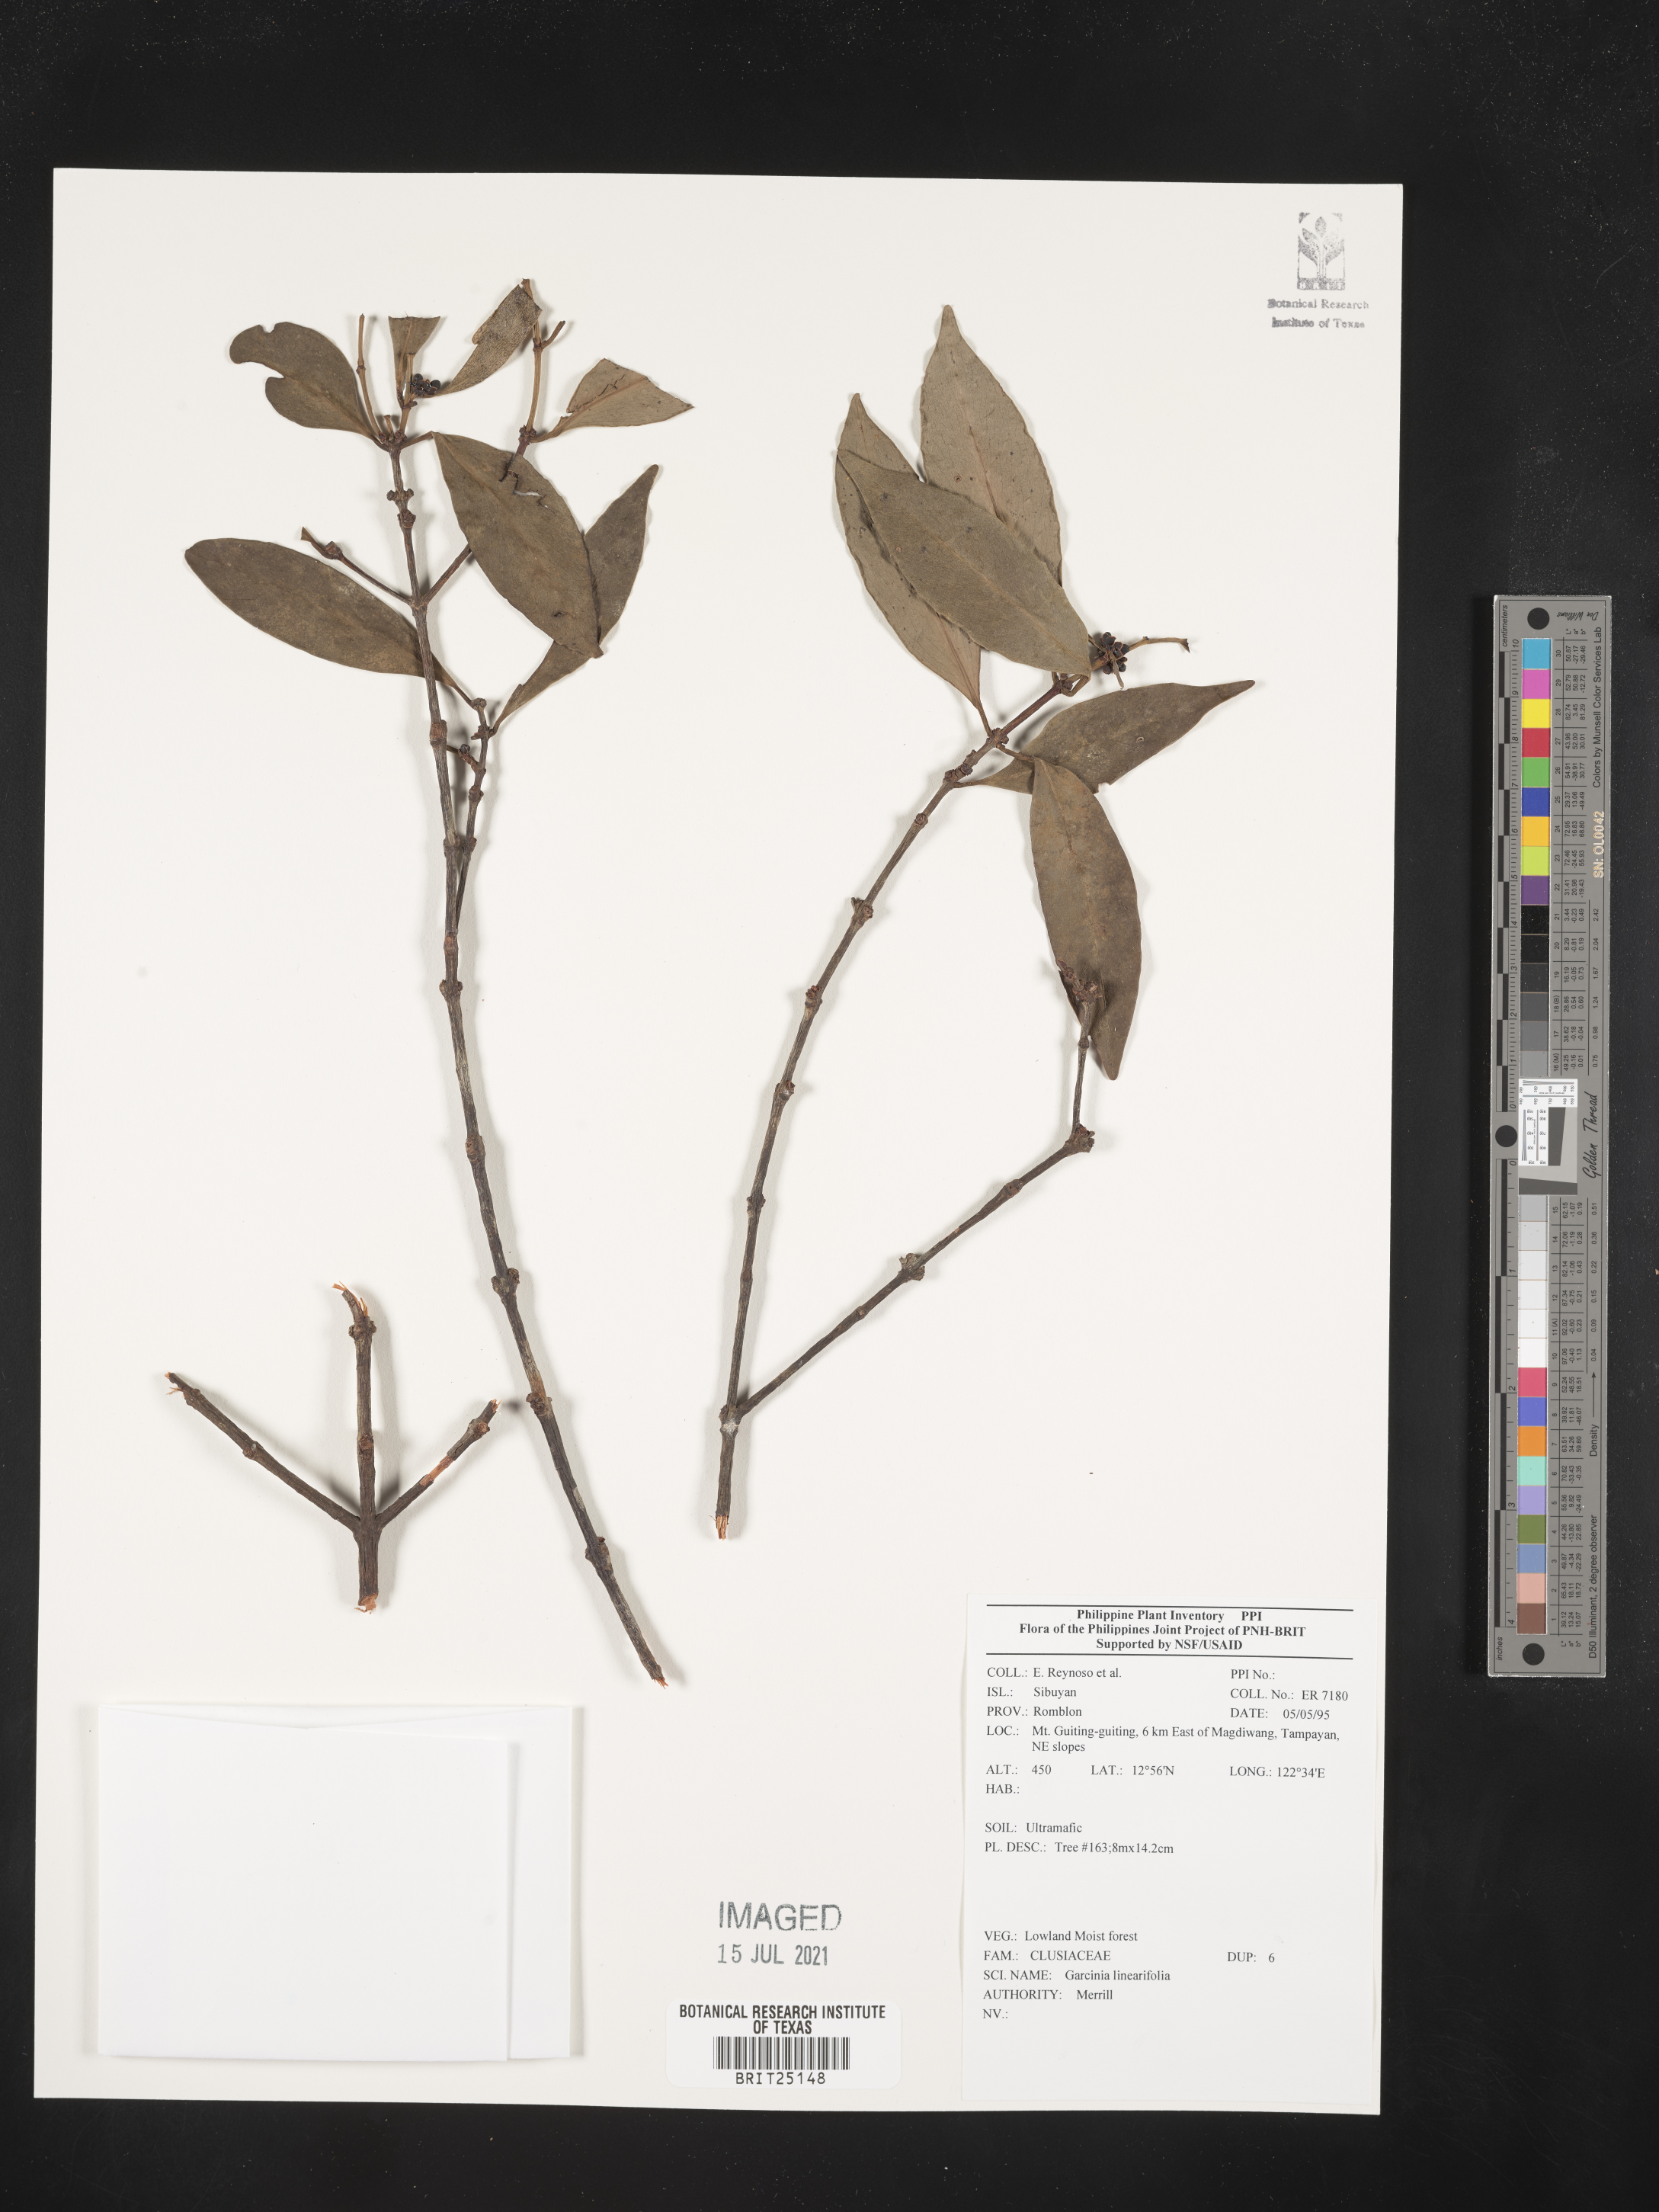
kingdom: Plantae
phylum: Tracheophyta
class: Magnoliopsida
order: Malpighiales
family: Clusiaceae
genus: Garcinia
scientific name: Garcinia linearifolia
